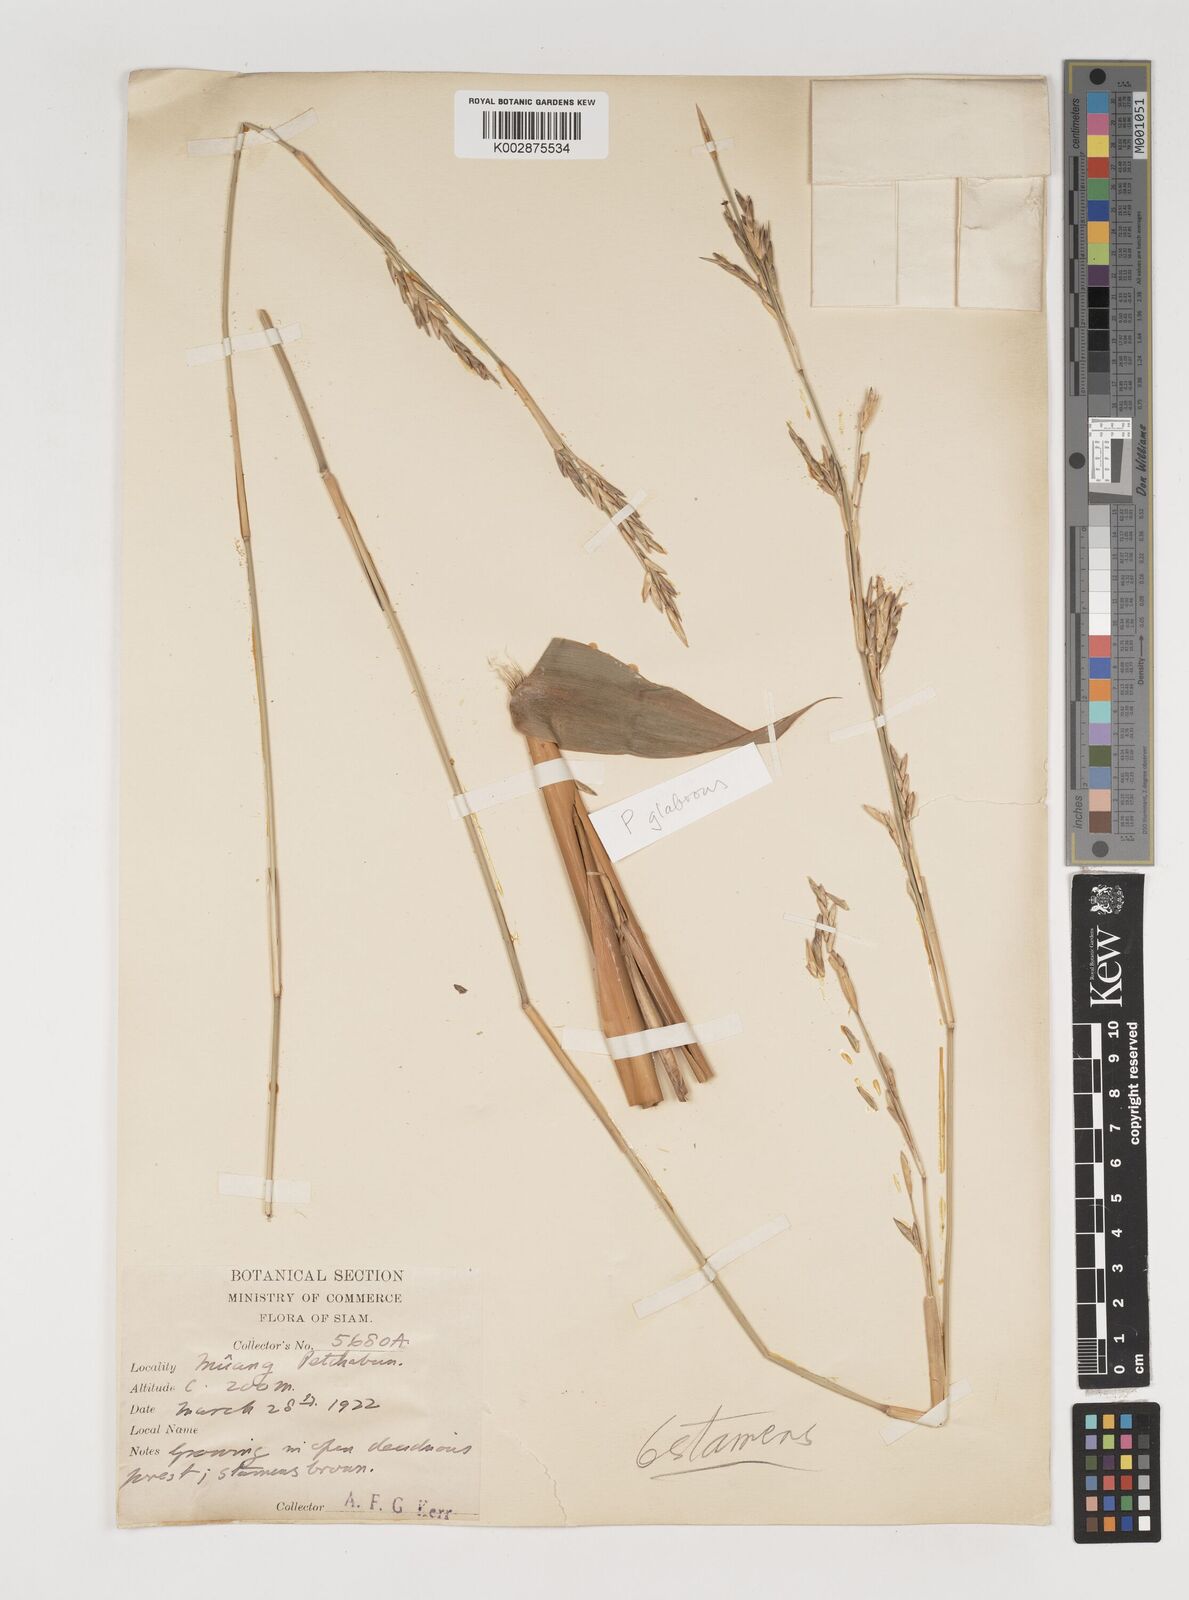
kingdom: Plantae
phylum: Tracheophyta
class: Liliopsida
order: Poales
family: Poaceae
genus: Vietnamosasa
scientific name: Vietnamosasa ciliata
